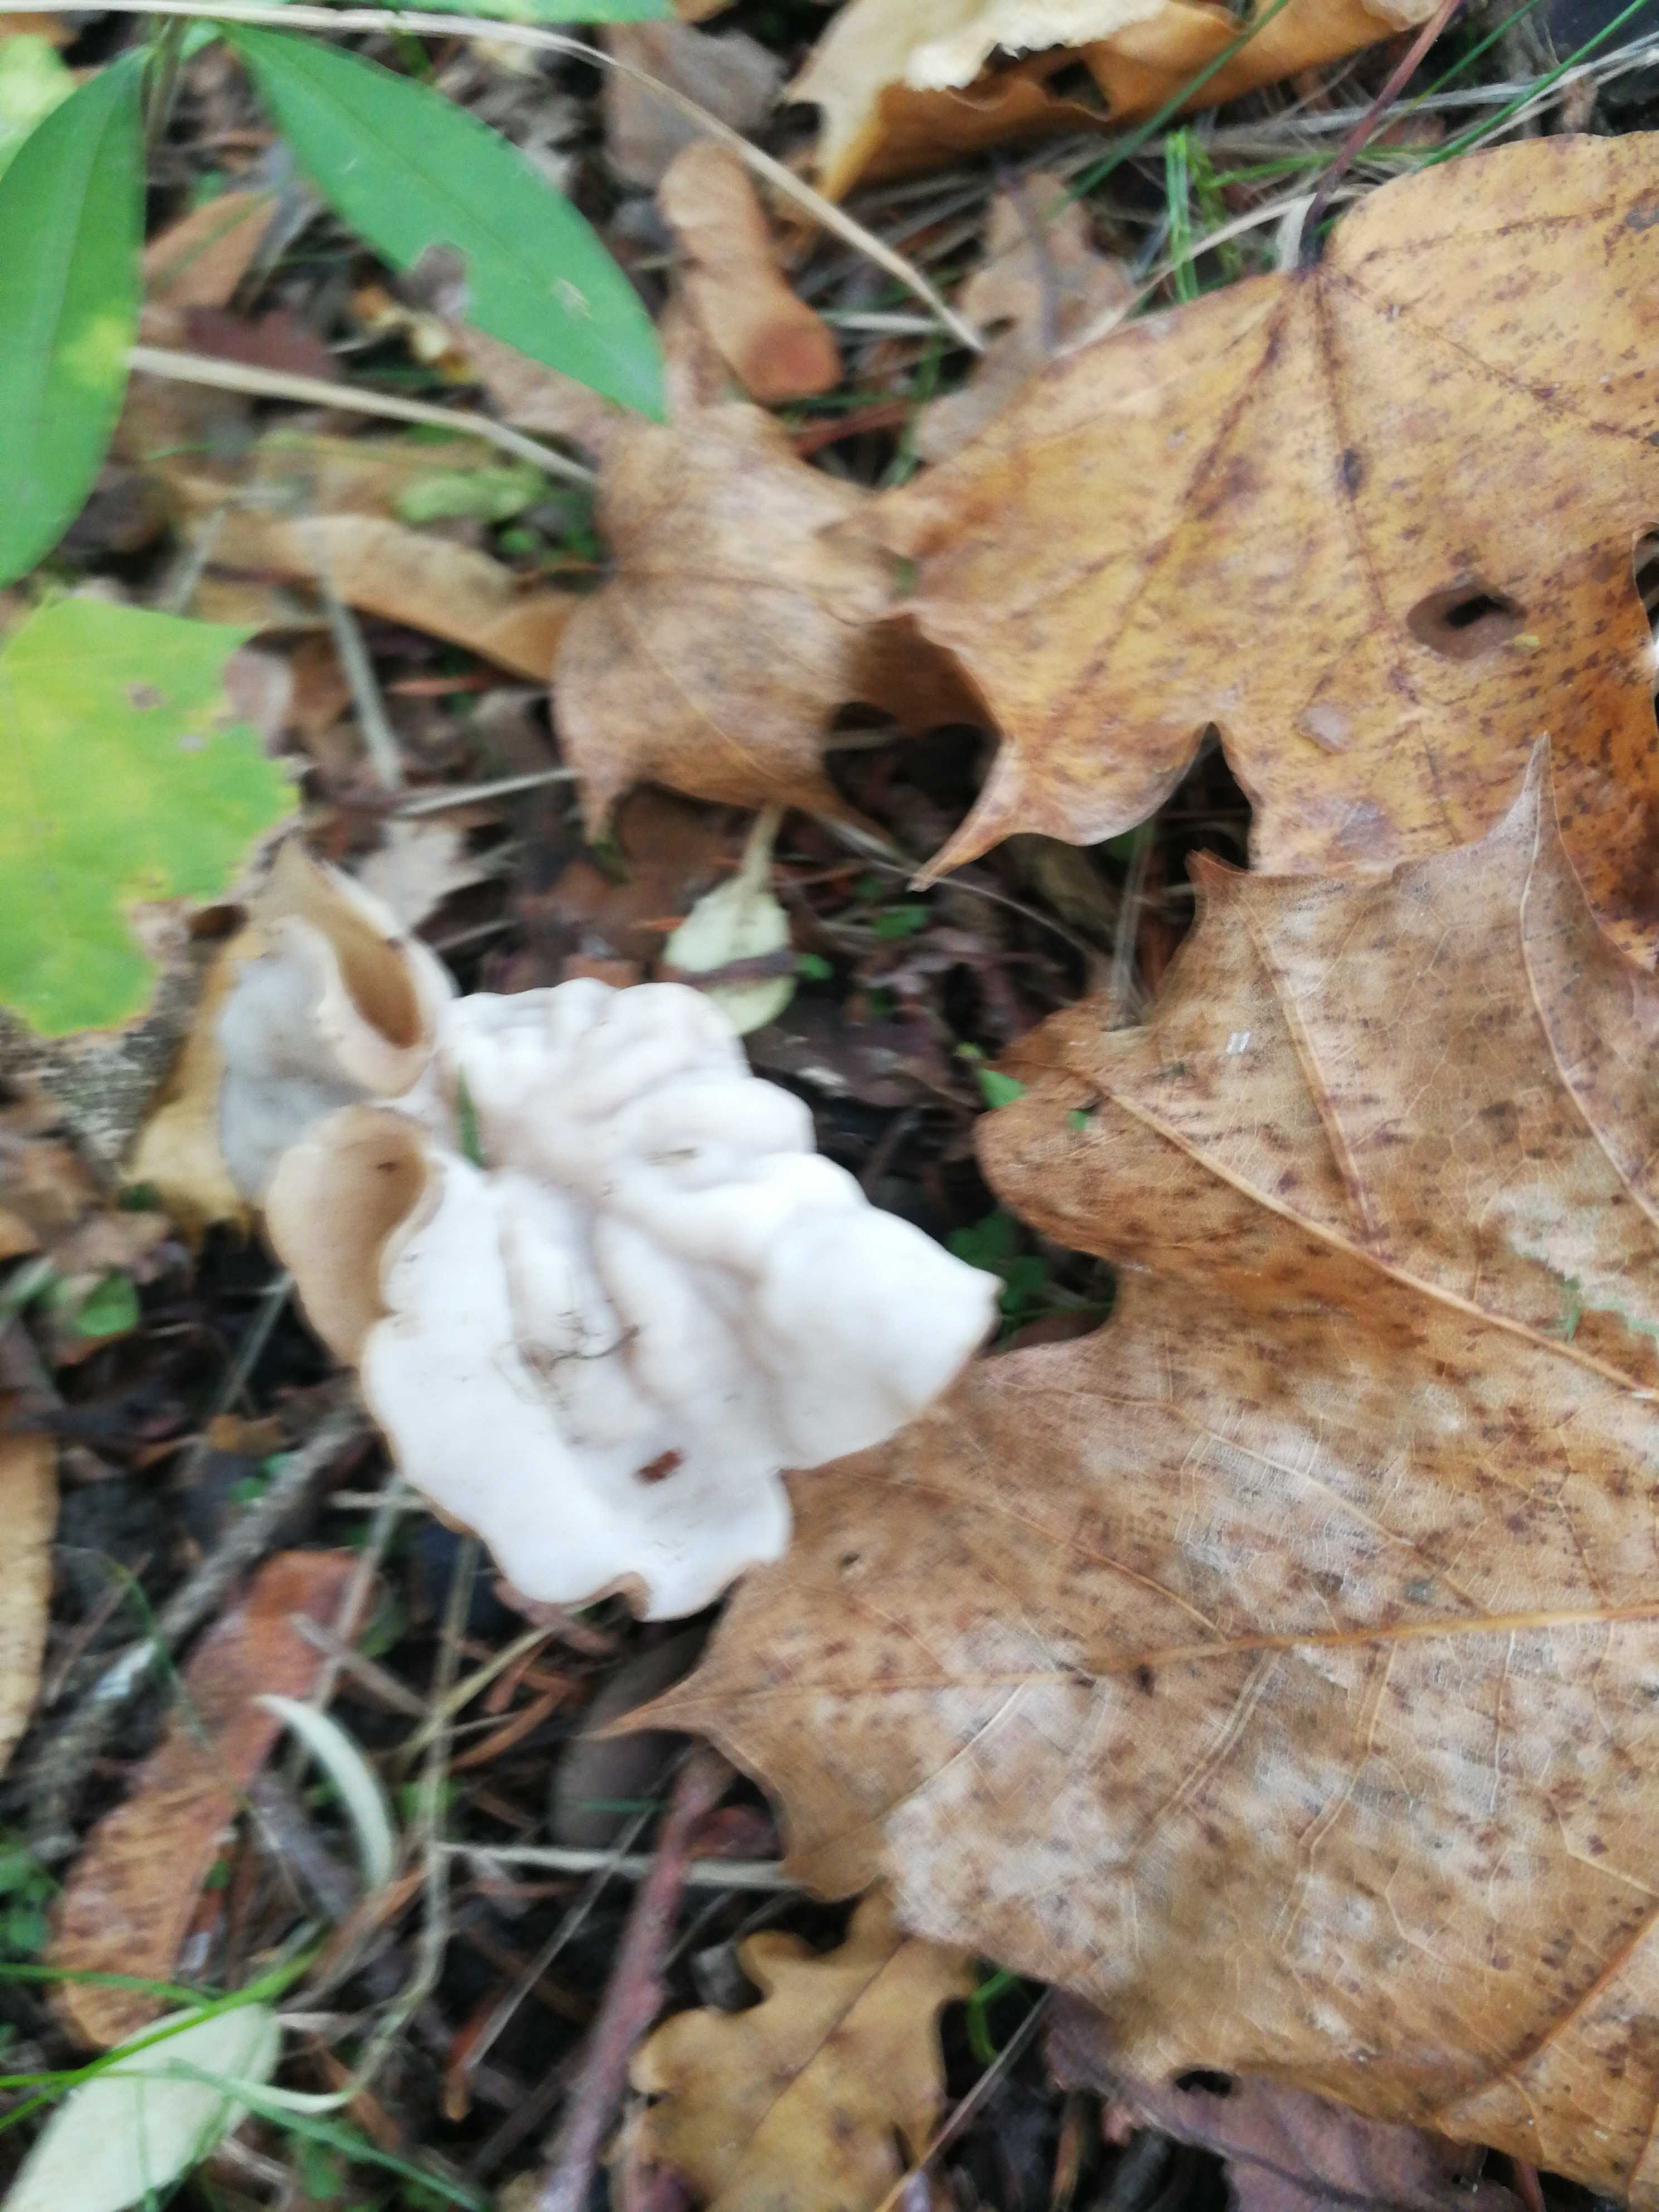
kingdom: Fungi
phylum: Ascomycota
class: Pezizomycetes
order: Pezizales
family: Helvellaceae
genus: Helvella
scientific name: Helvella crispa
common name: kruset foldhat
